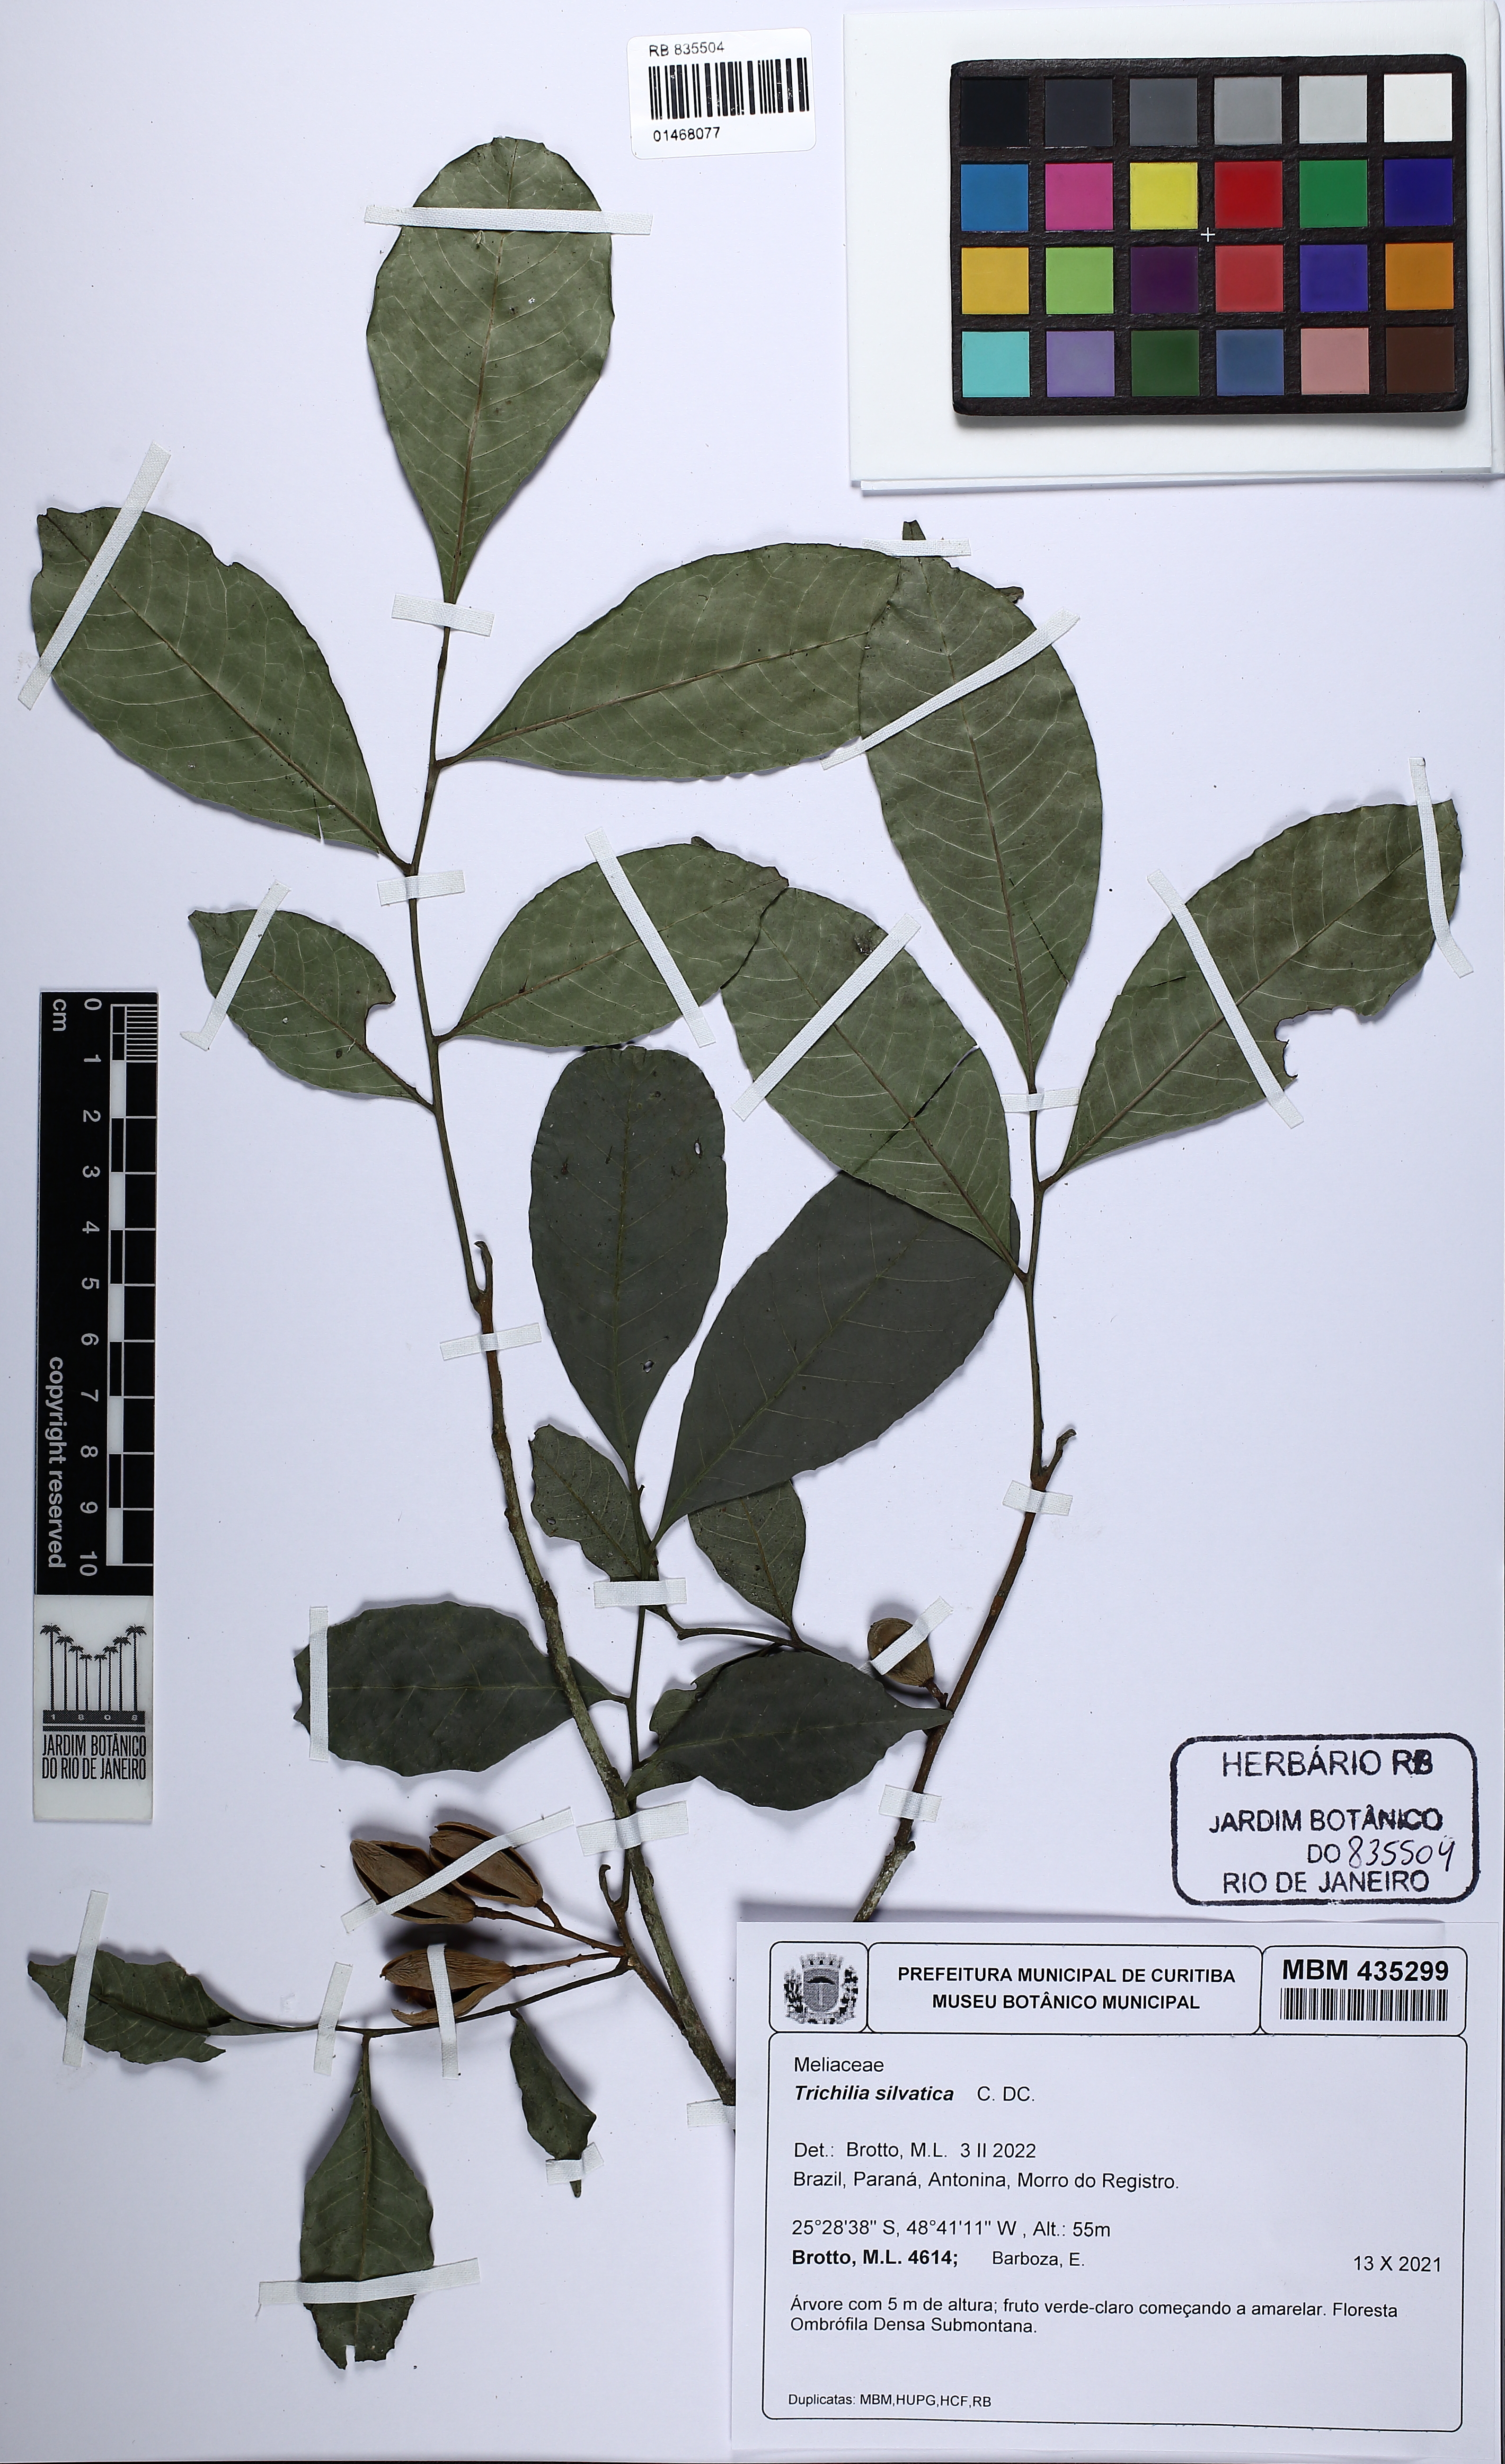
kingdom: Plantae
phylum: Tracheophyta
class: Magnoliopsida
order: Sapindales
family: Meliaceae
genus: Trichilia
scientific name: Trichilia silvatica
